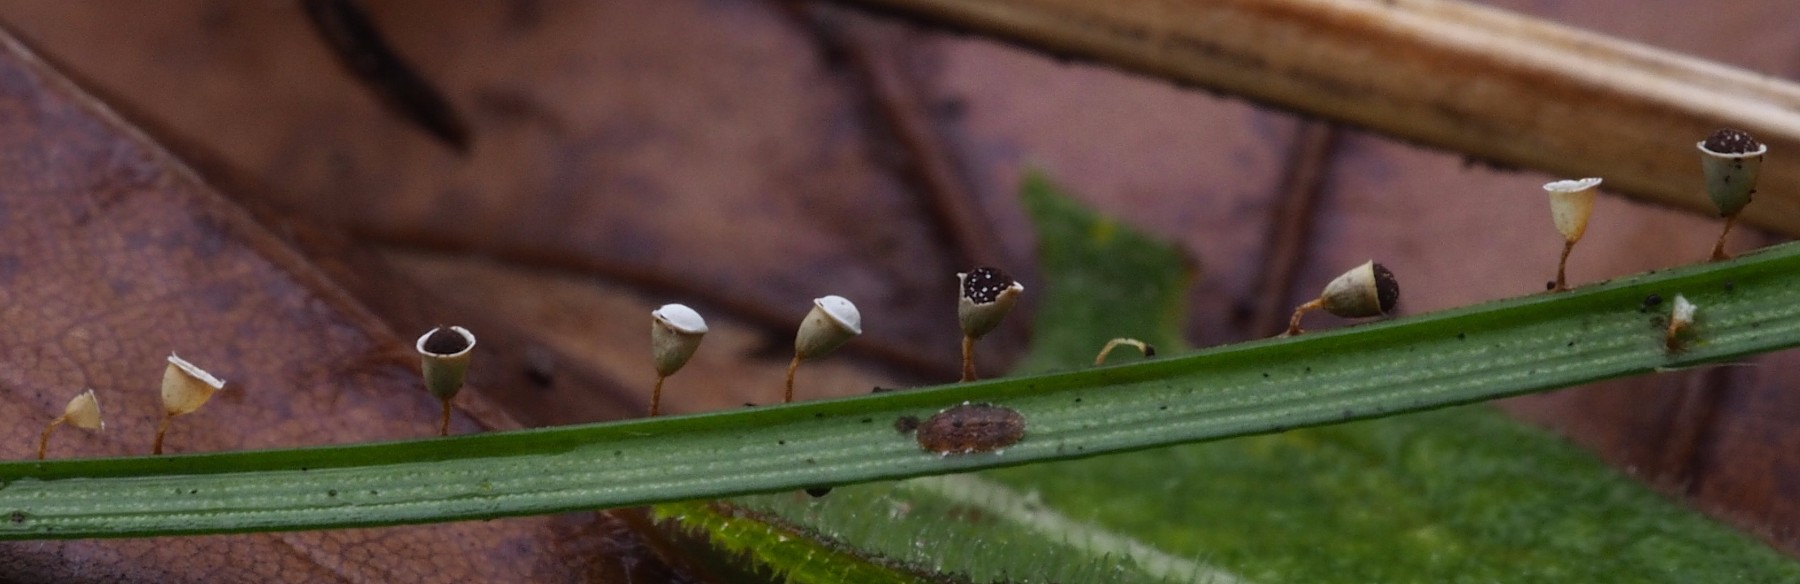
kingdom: Protozoa
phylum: Mycetozoa
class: Myxomycetes
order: Physarales
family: Physaraceae
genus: Craterium
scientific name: Craterium minutum
